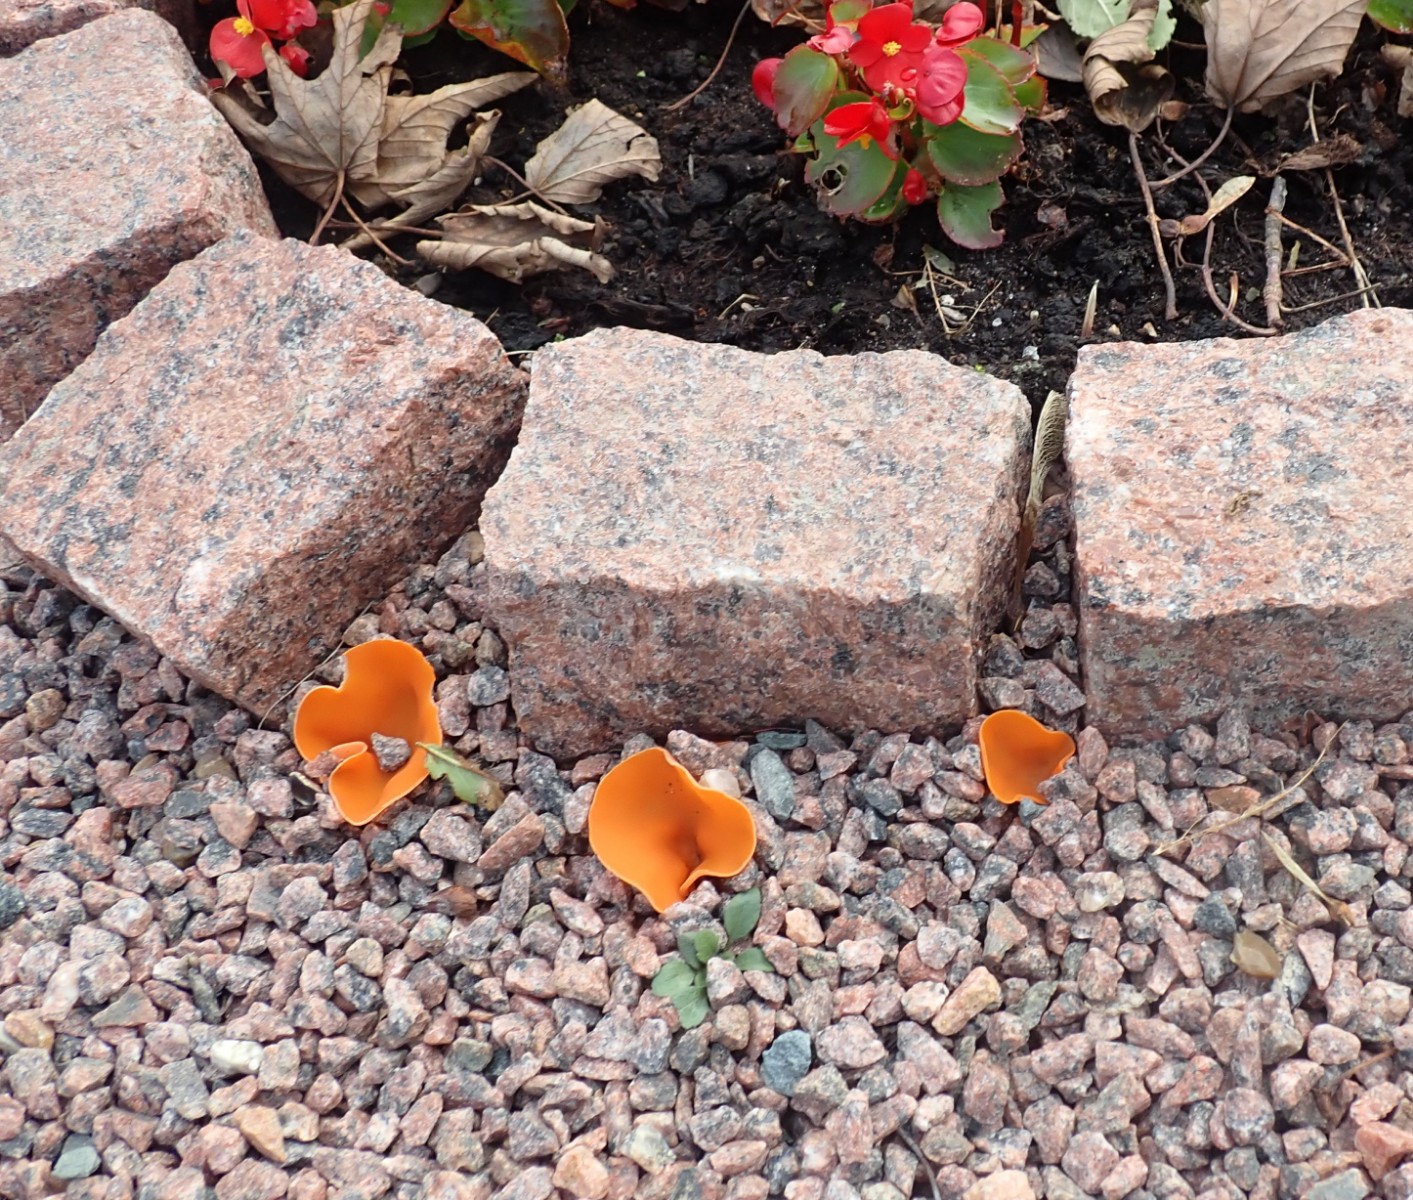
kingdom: Fungi
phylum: Ascomycota
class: Pezizomycetes
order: Pezizales
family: Pyronemataceae
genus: Aleuria
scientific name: Aleuria aurantia
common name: almindelig orangebæger
